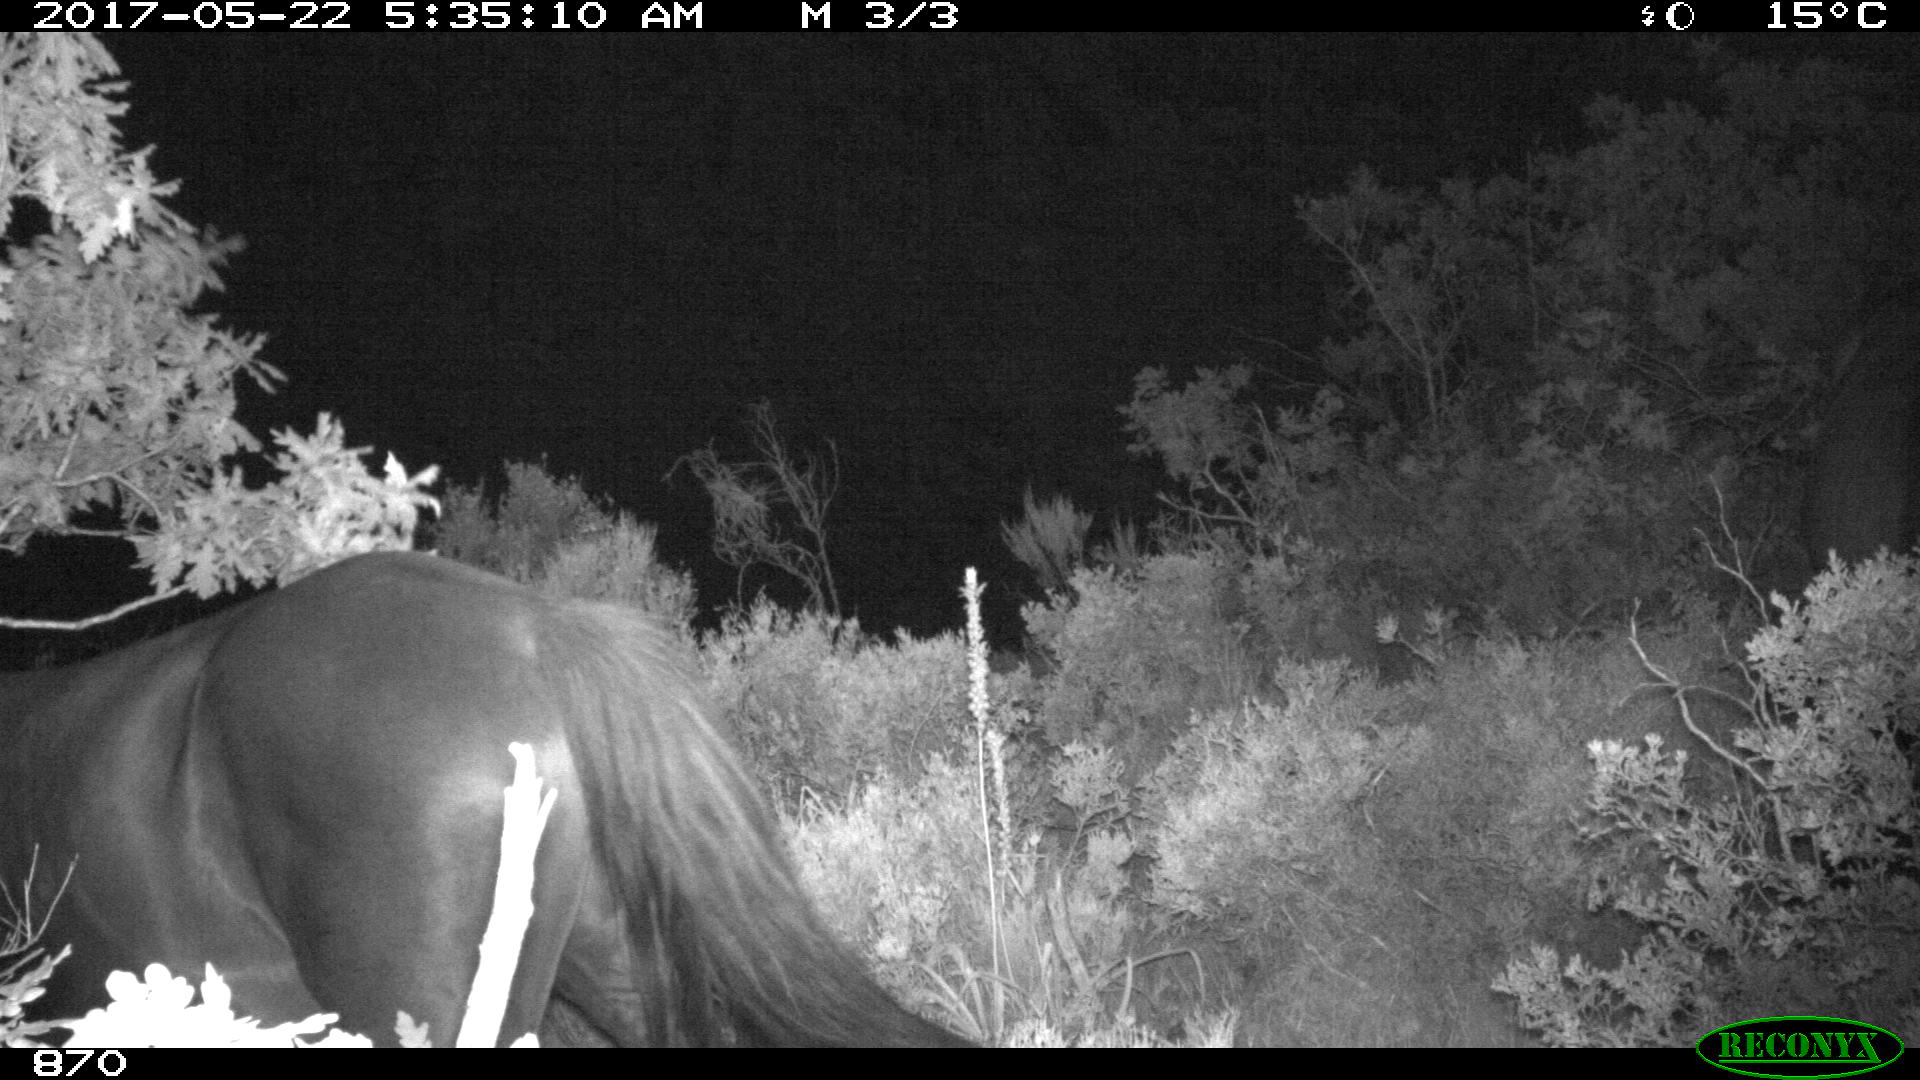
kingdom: Animalia
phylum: Chordata
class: Mammalia
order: Perissodactyla
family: Equidae
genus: Equus
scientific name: Equus caballus
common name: Horse
